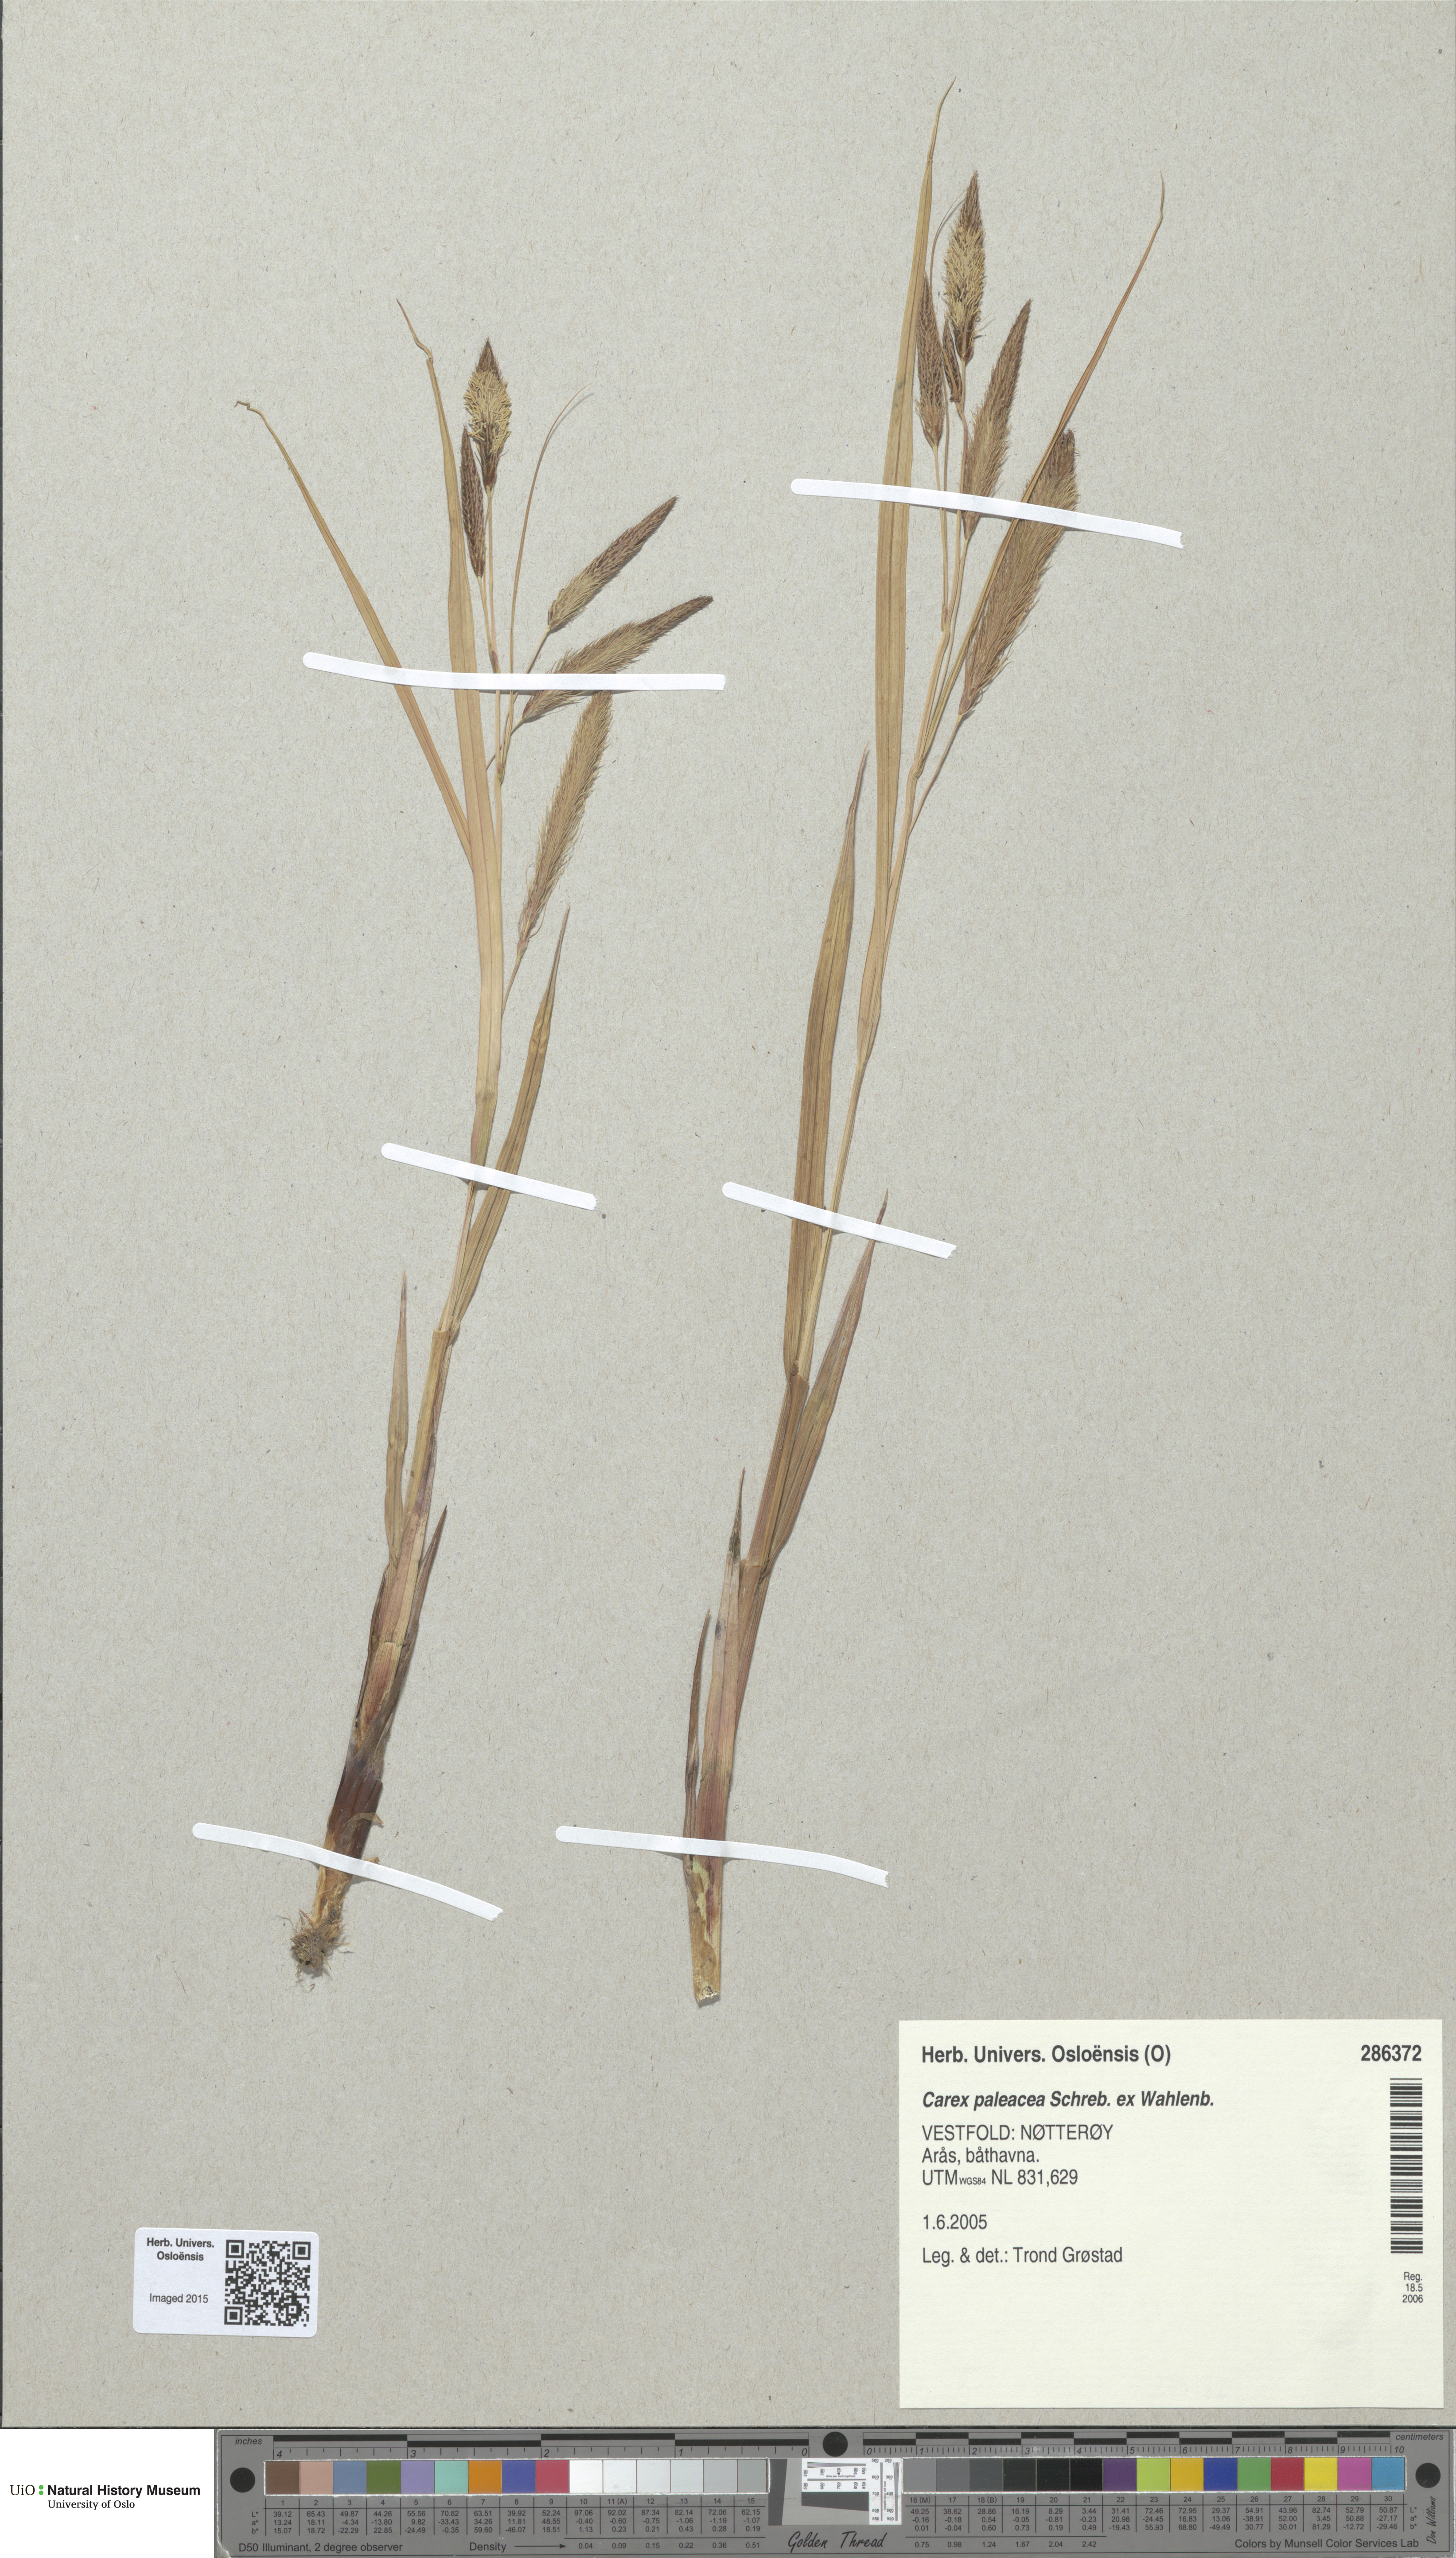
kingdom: Plantae
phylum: Tracheophyta
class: Liliopsida
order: Poales
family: Cyperaceae
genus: Carex
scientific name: Carex paleacea
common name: Chaffy sedge
